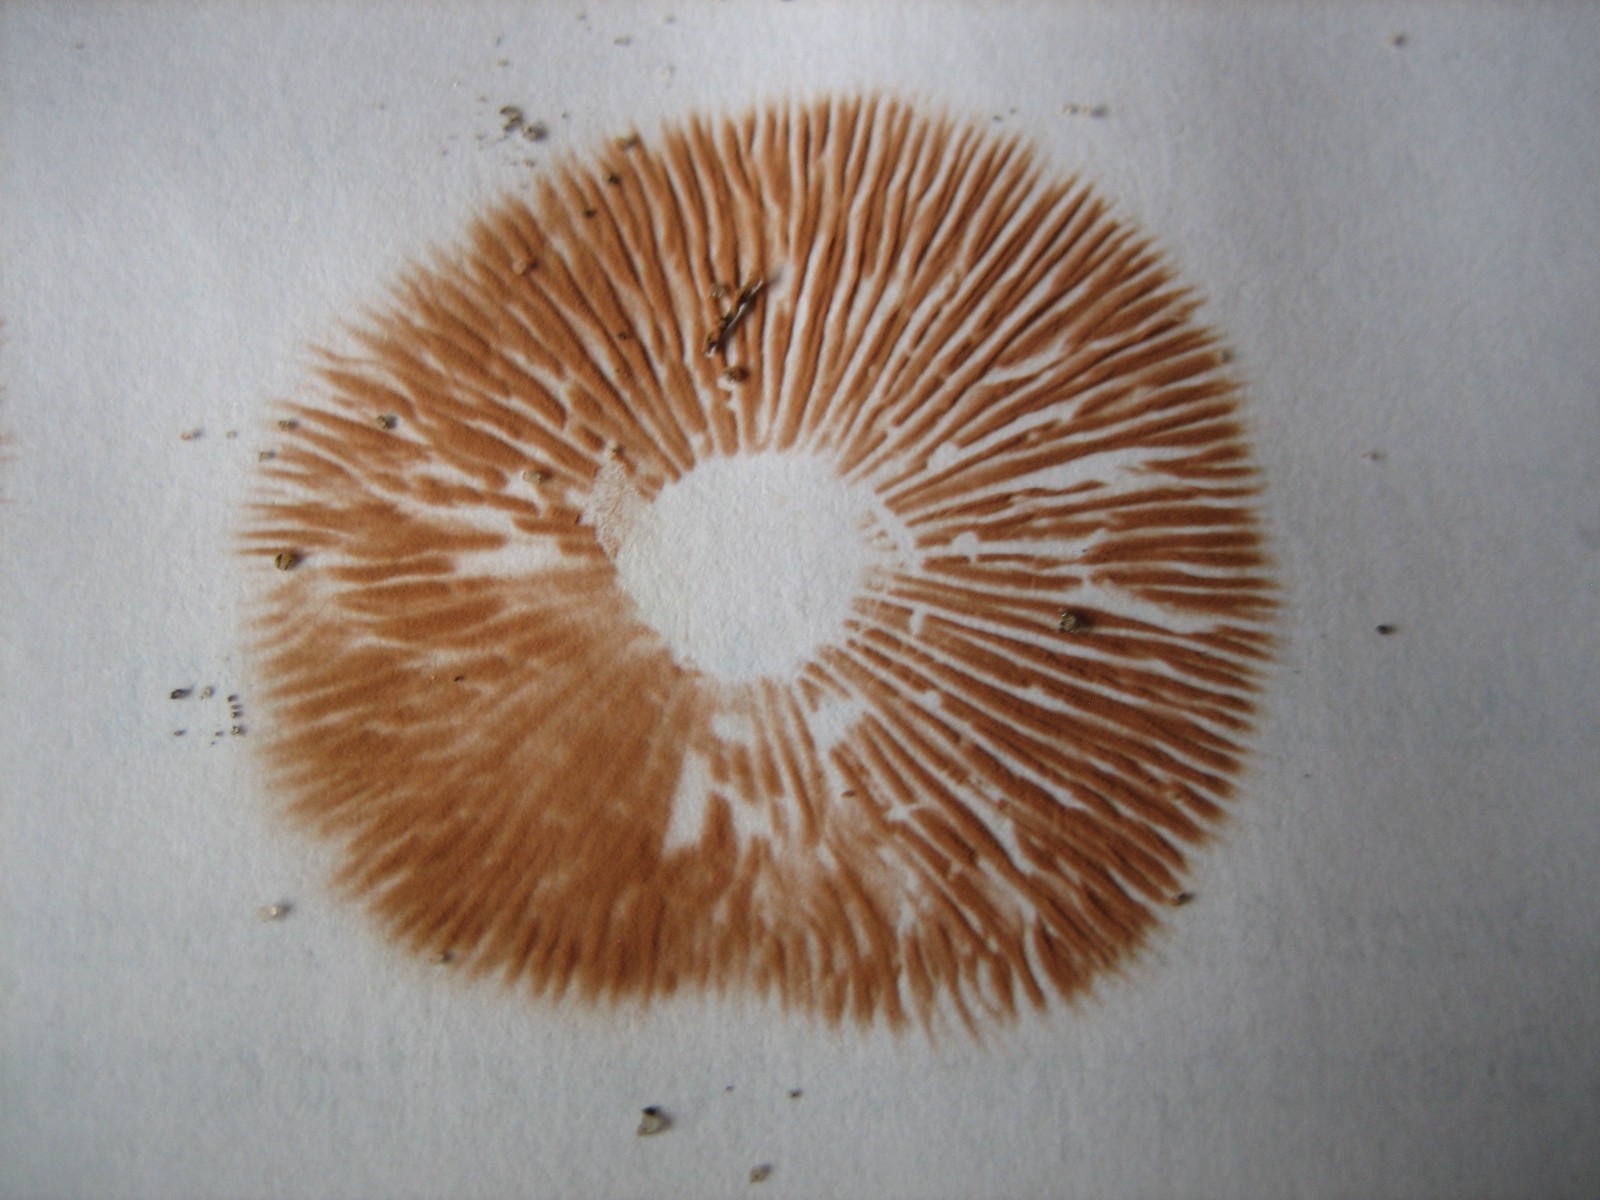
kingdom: Fungi
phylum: Basidiomycota
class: Agaricomycetes
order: Agaricales
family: Entolomataceae
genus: Entoloma
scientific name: Entoloma
